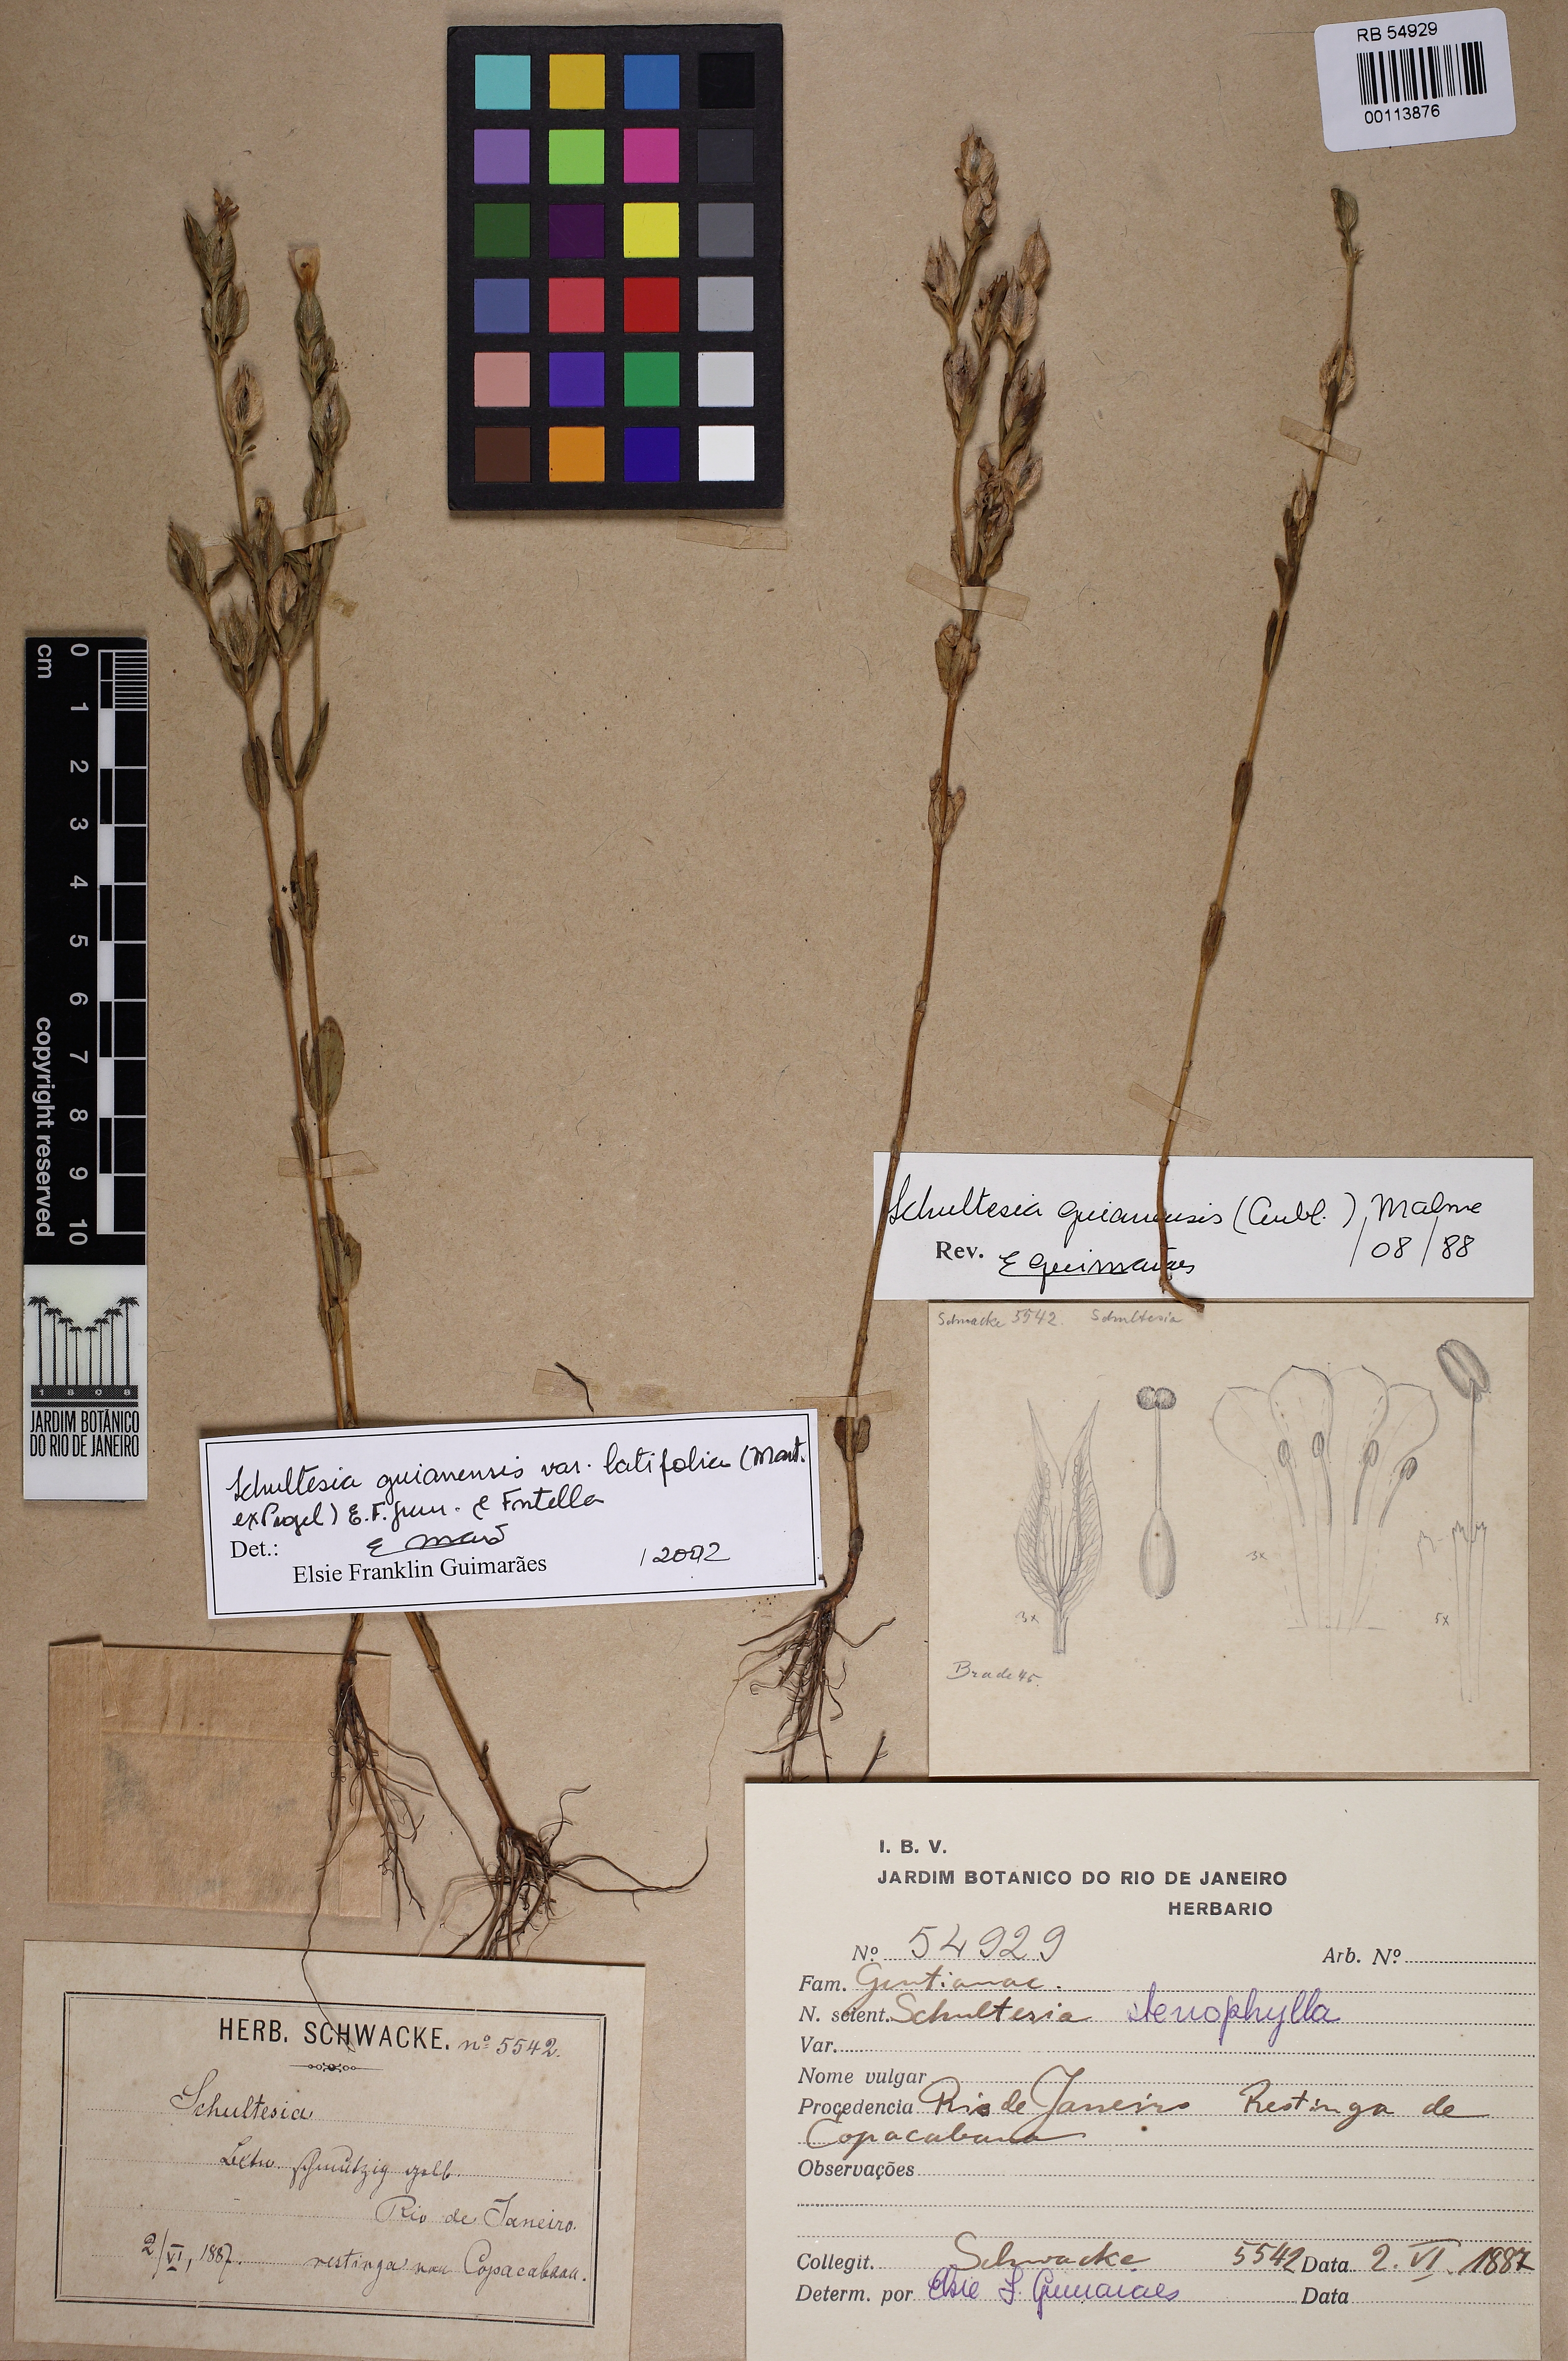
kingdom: Plantae
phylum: Tracheophyta
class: Magnoliopsida
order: Gentianales
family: Gentianaceae
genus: Schultesia
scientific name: Schultesia guianensis
